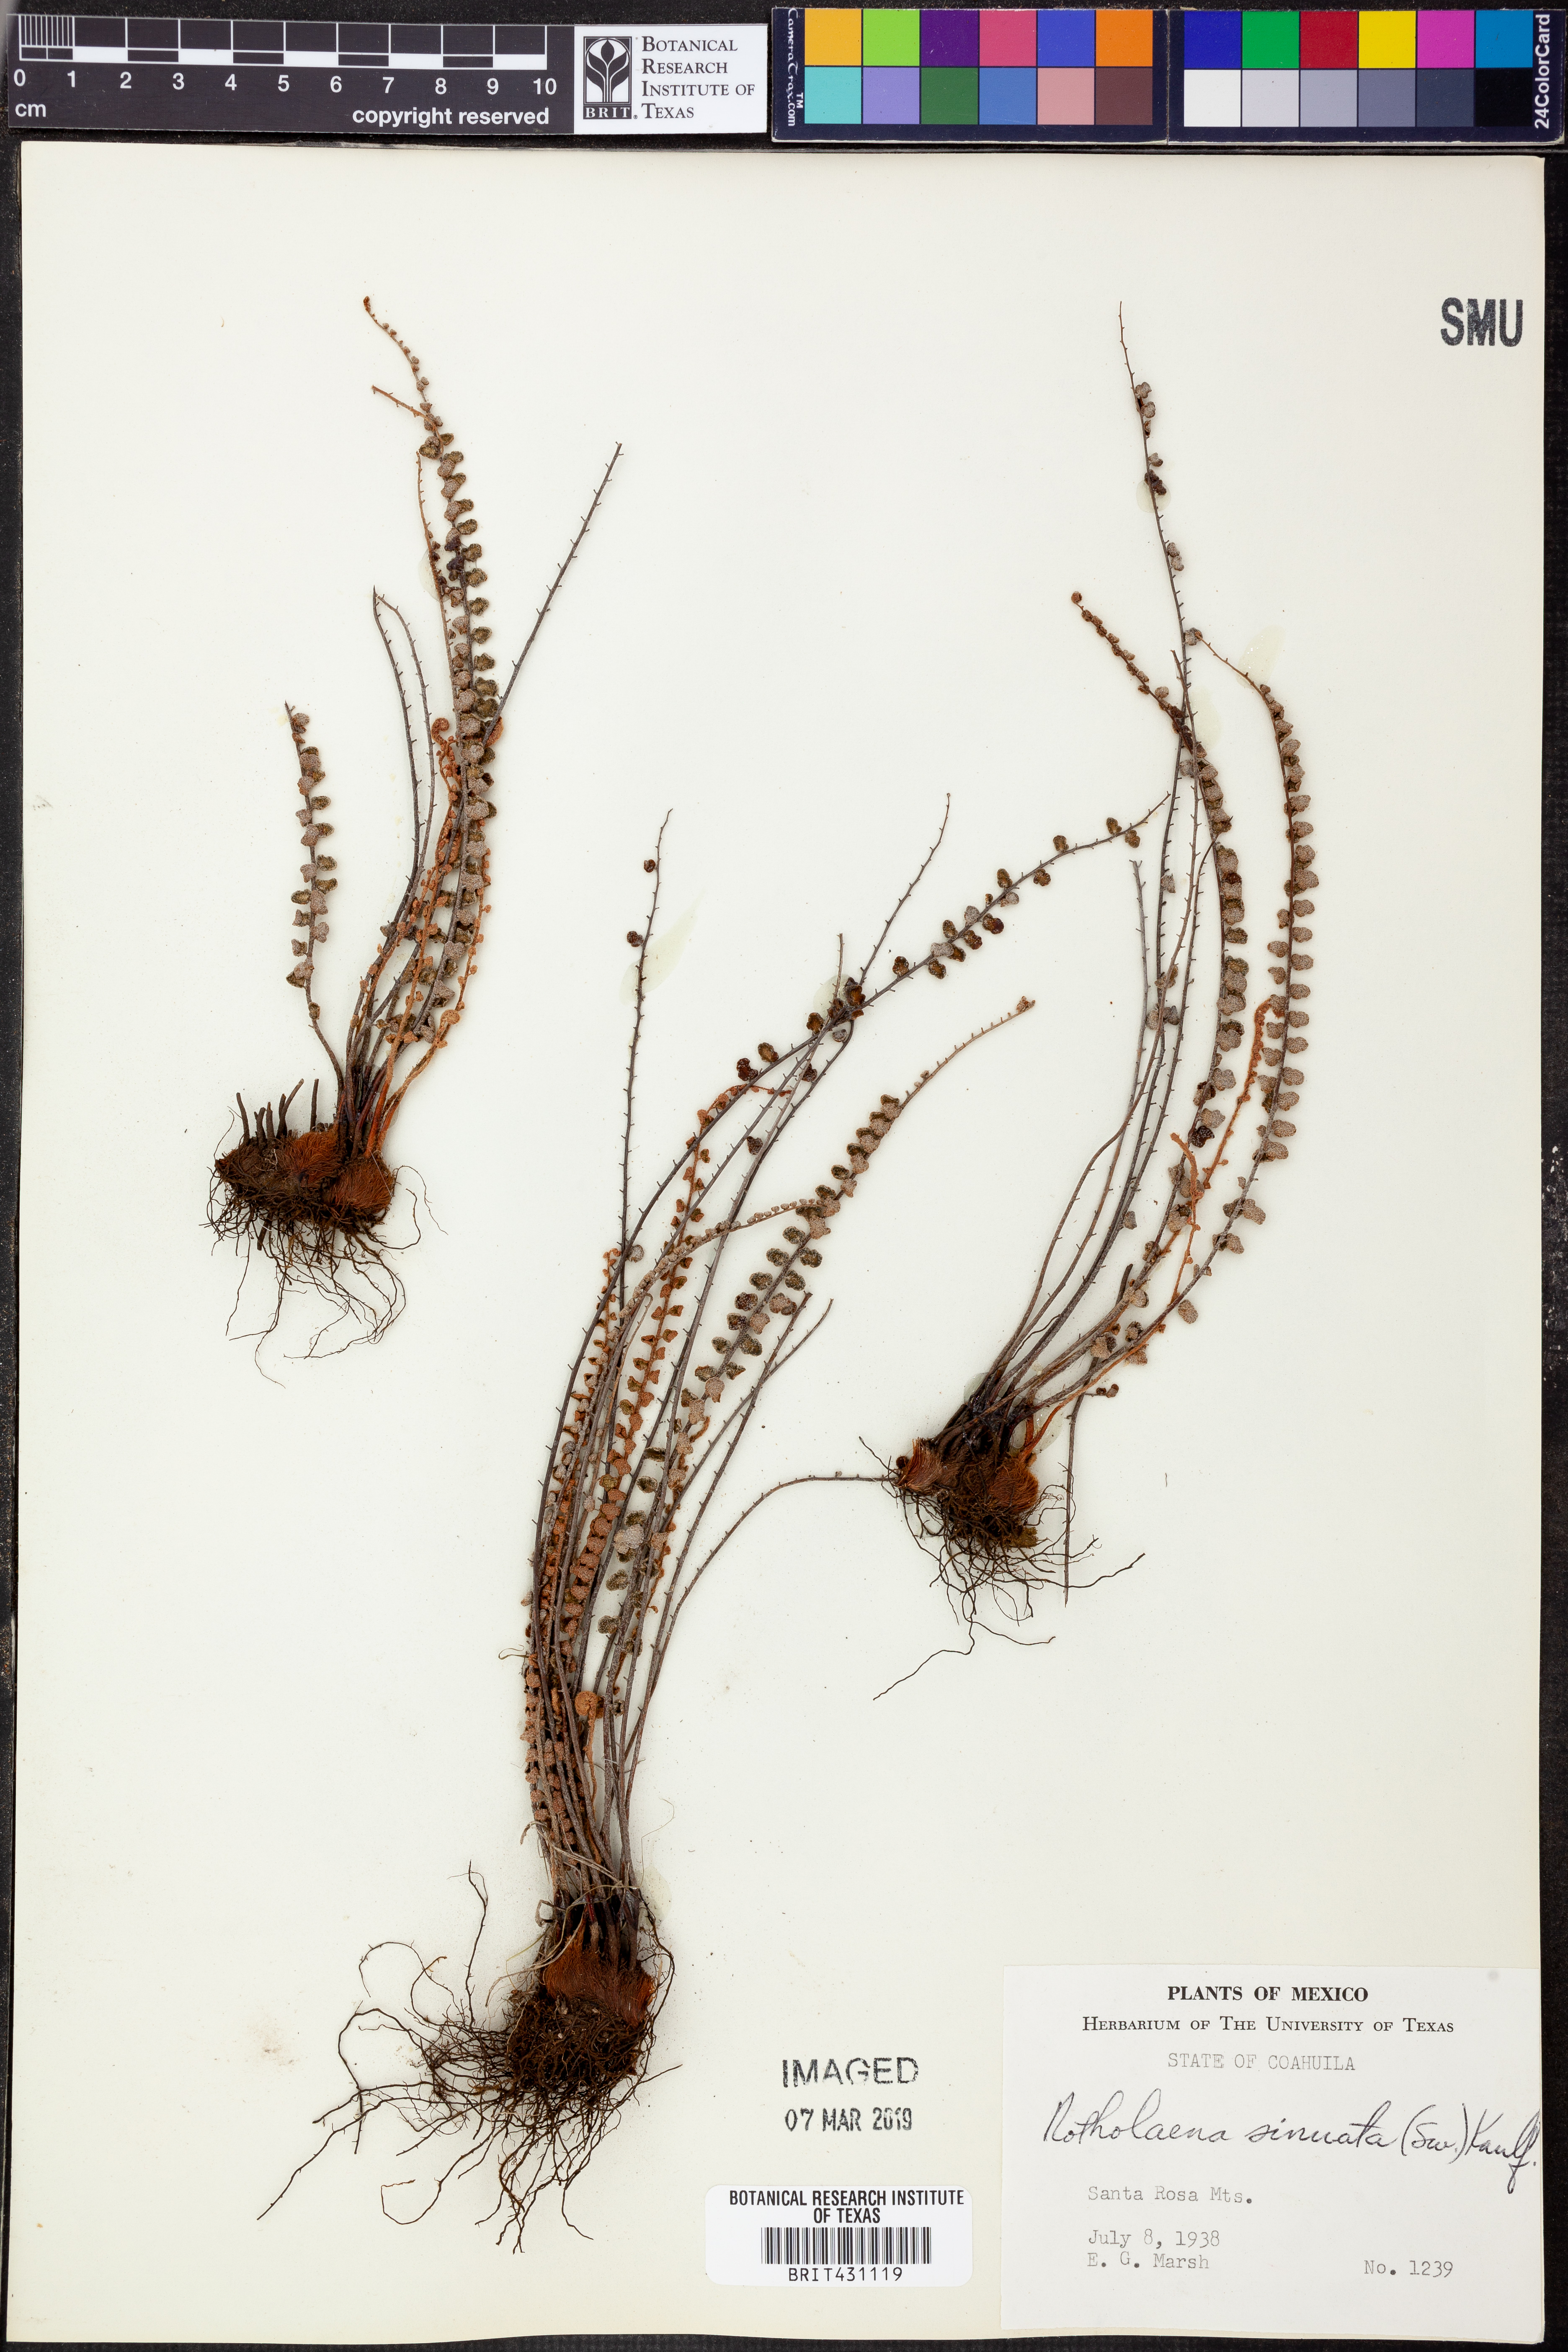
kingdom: Plantae
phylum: Tracheophyta
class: Polypodiopsida
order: Polypodiales
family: Pteridaceae
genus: Astrolepis
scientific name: Astrolepis sinuata
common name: Wavy scaly cloakfern
